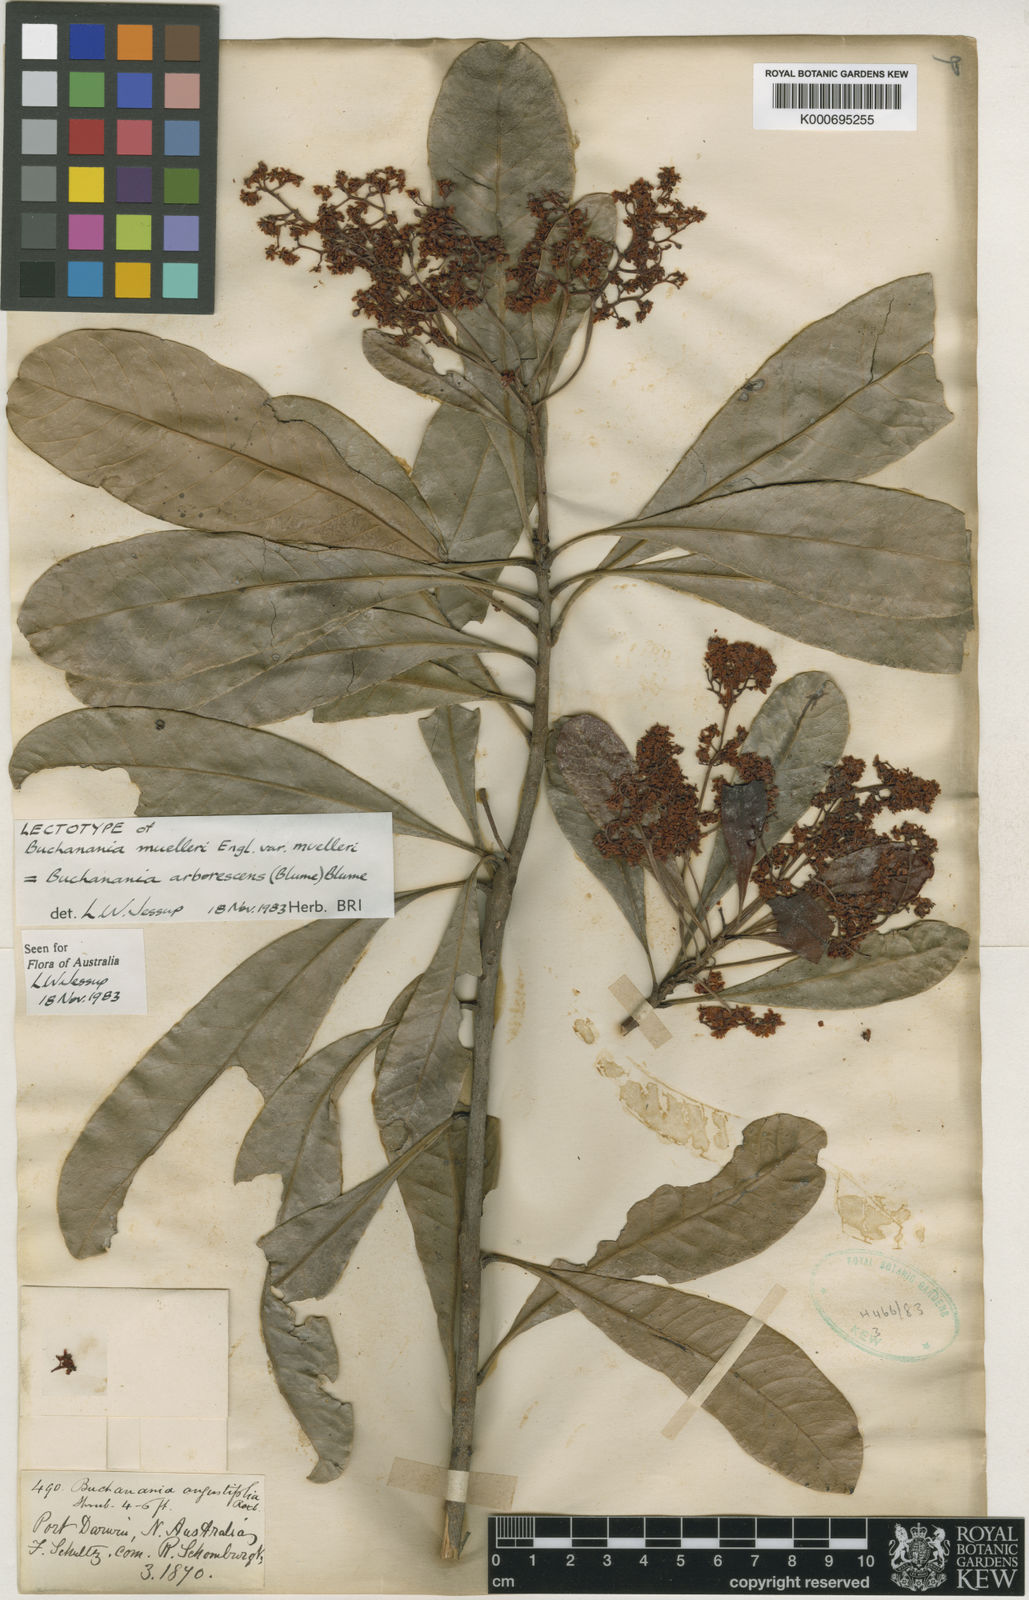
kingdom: Plantae
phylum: Tracheophyta
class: Magnoliopsida
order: Sapindales
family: Anacardiaceae
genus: Buchanania
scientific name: Buchanania arborescens
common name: Sparrow’s mango
